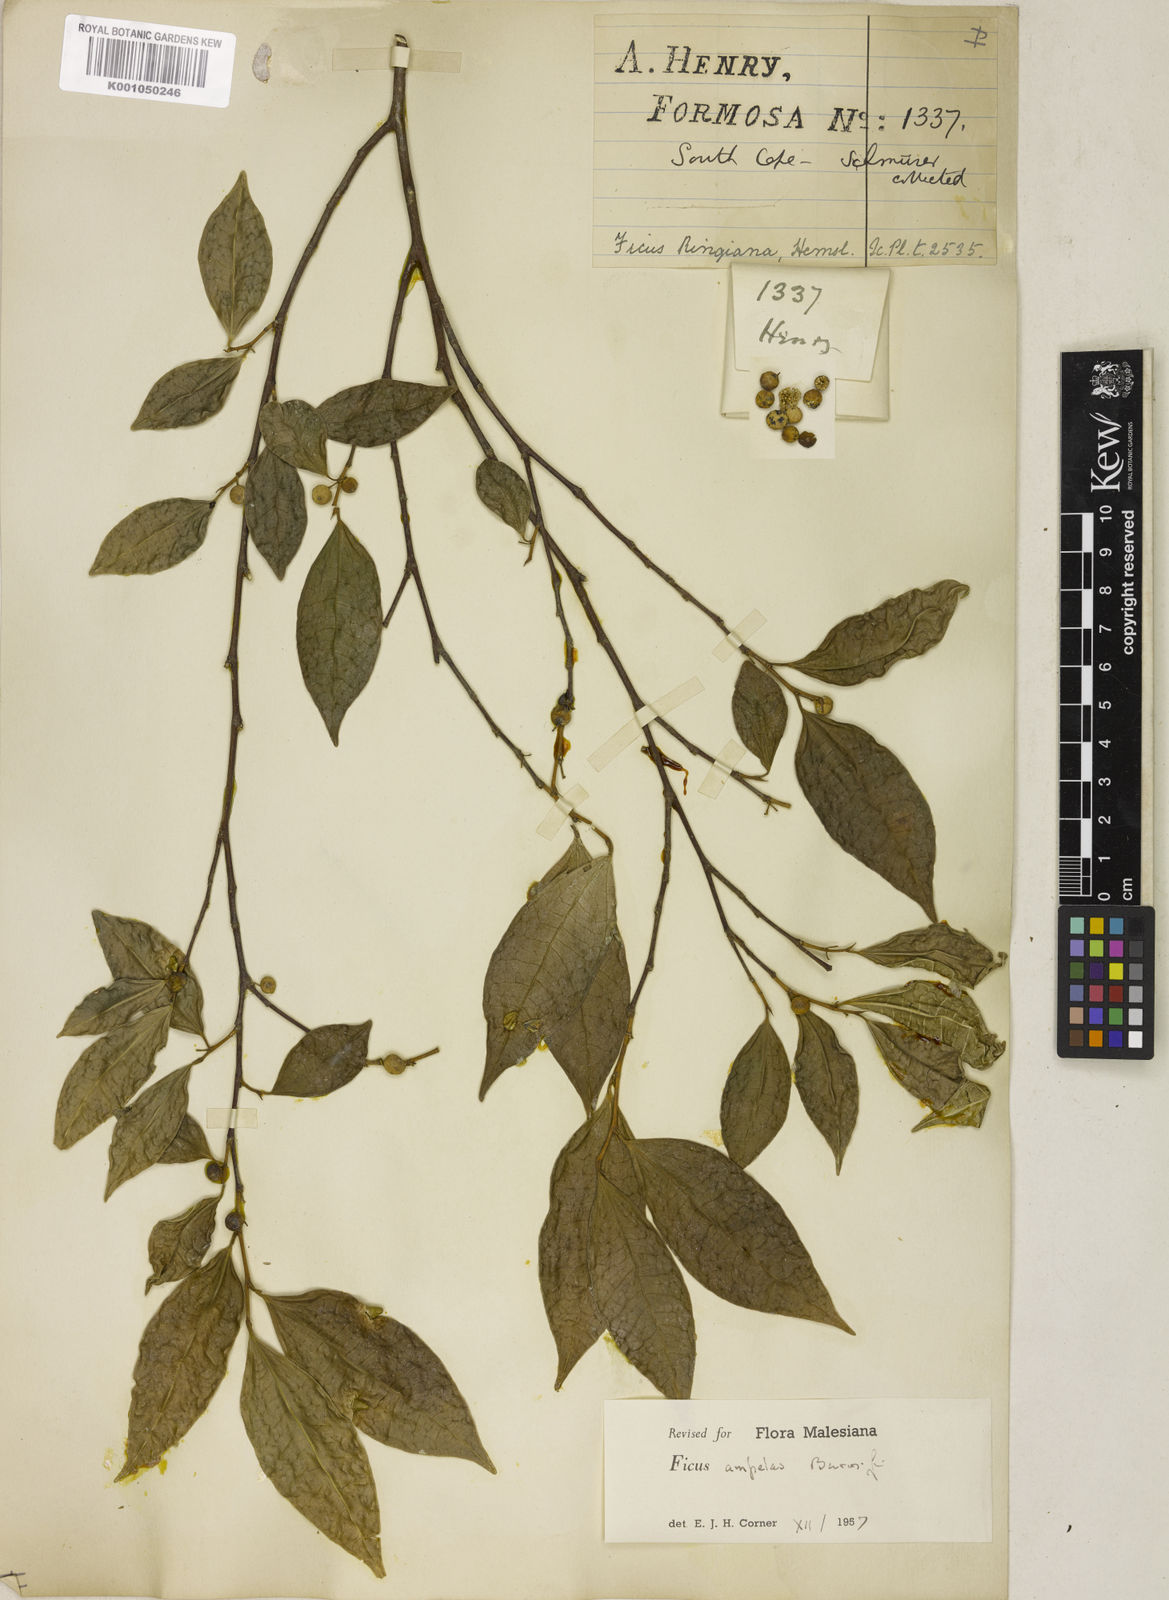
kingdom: Plantae
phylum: Tracheophyta
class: Magnoliopsida
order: Rosales
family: Moraceae
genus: Ficus
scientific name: Ficus
